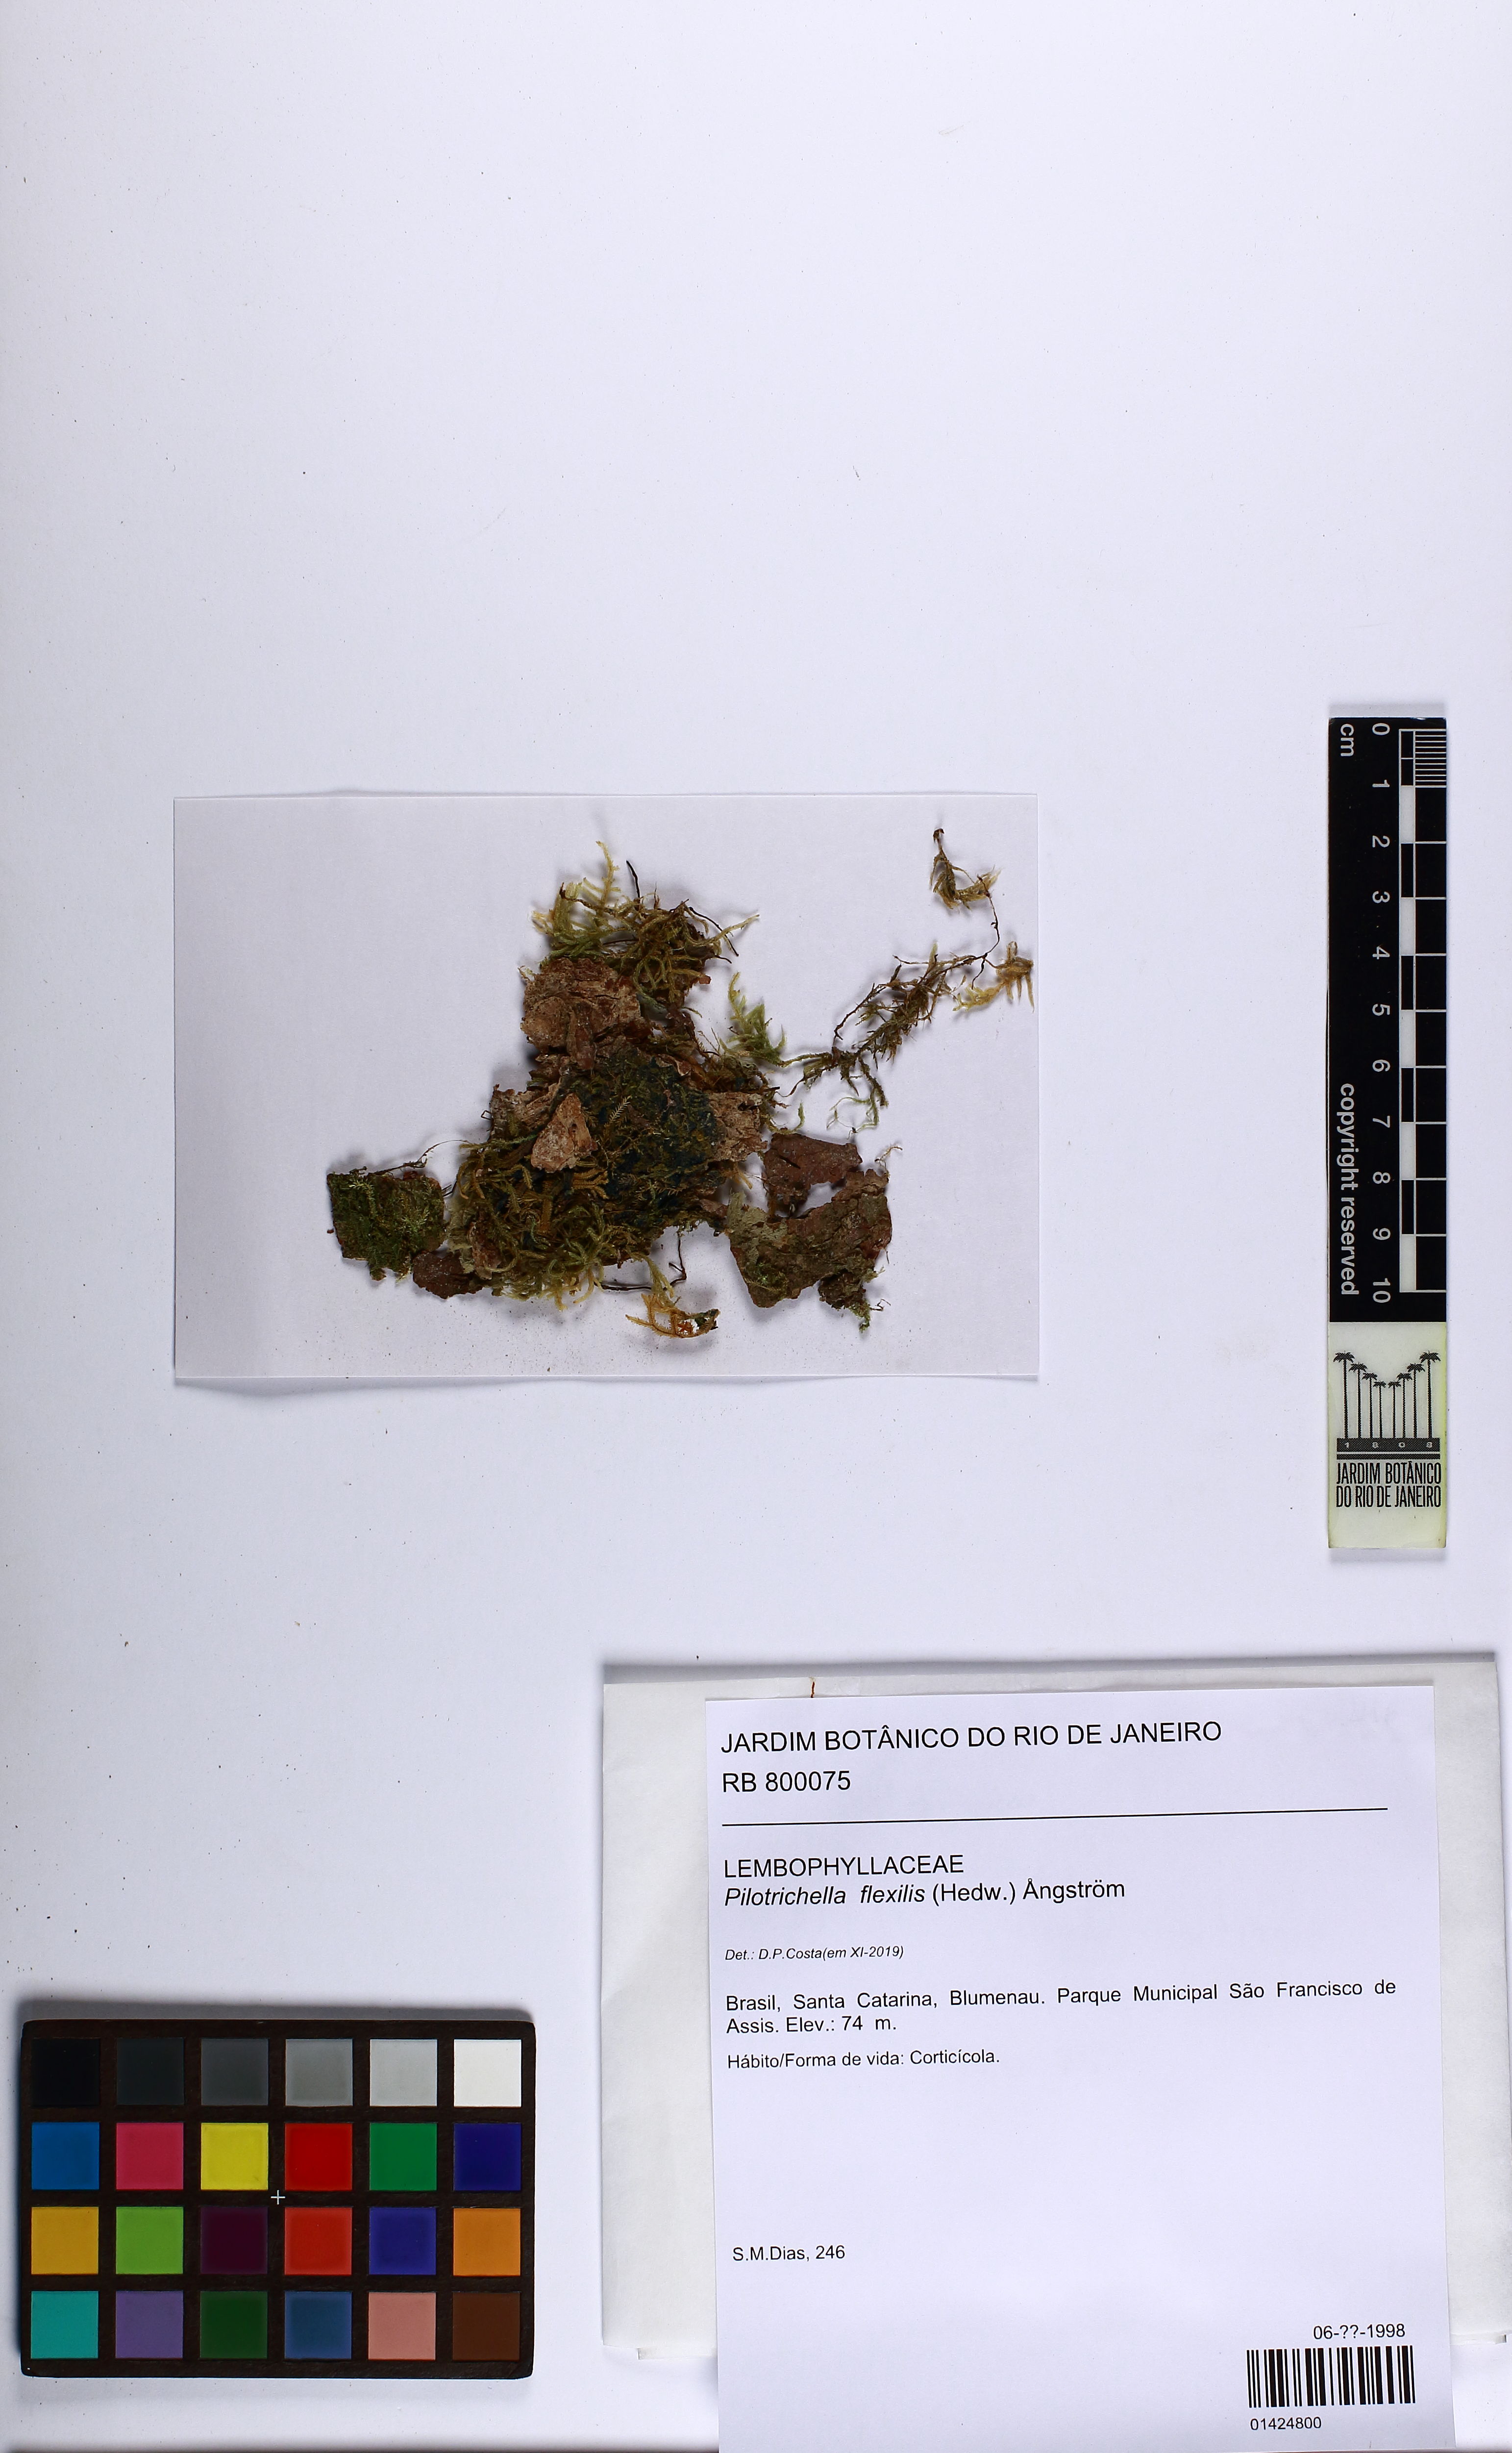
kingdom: Plantae
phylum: Bryophyta
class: Bryopsida
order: Hypnales
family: Lembophyllaceae
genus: Pilotrichella
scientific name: Pilotrichella flexilis
